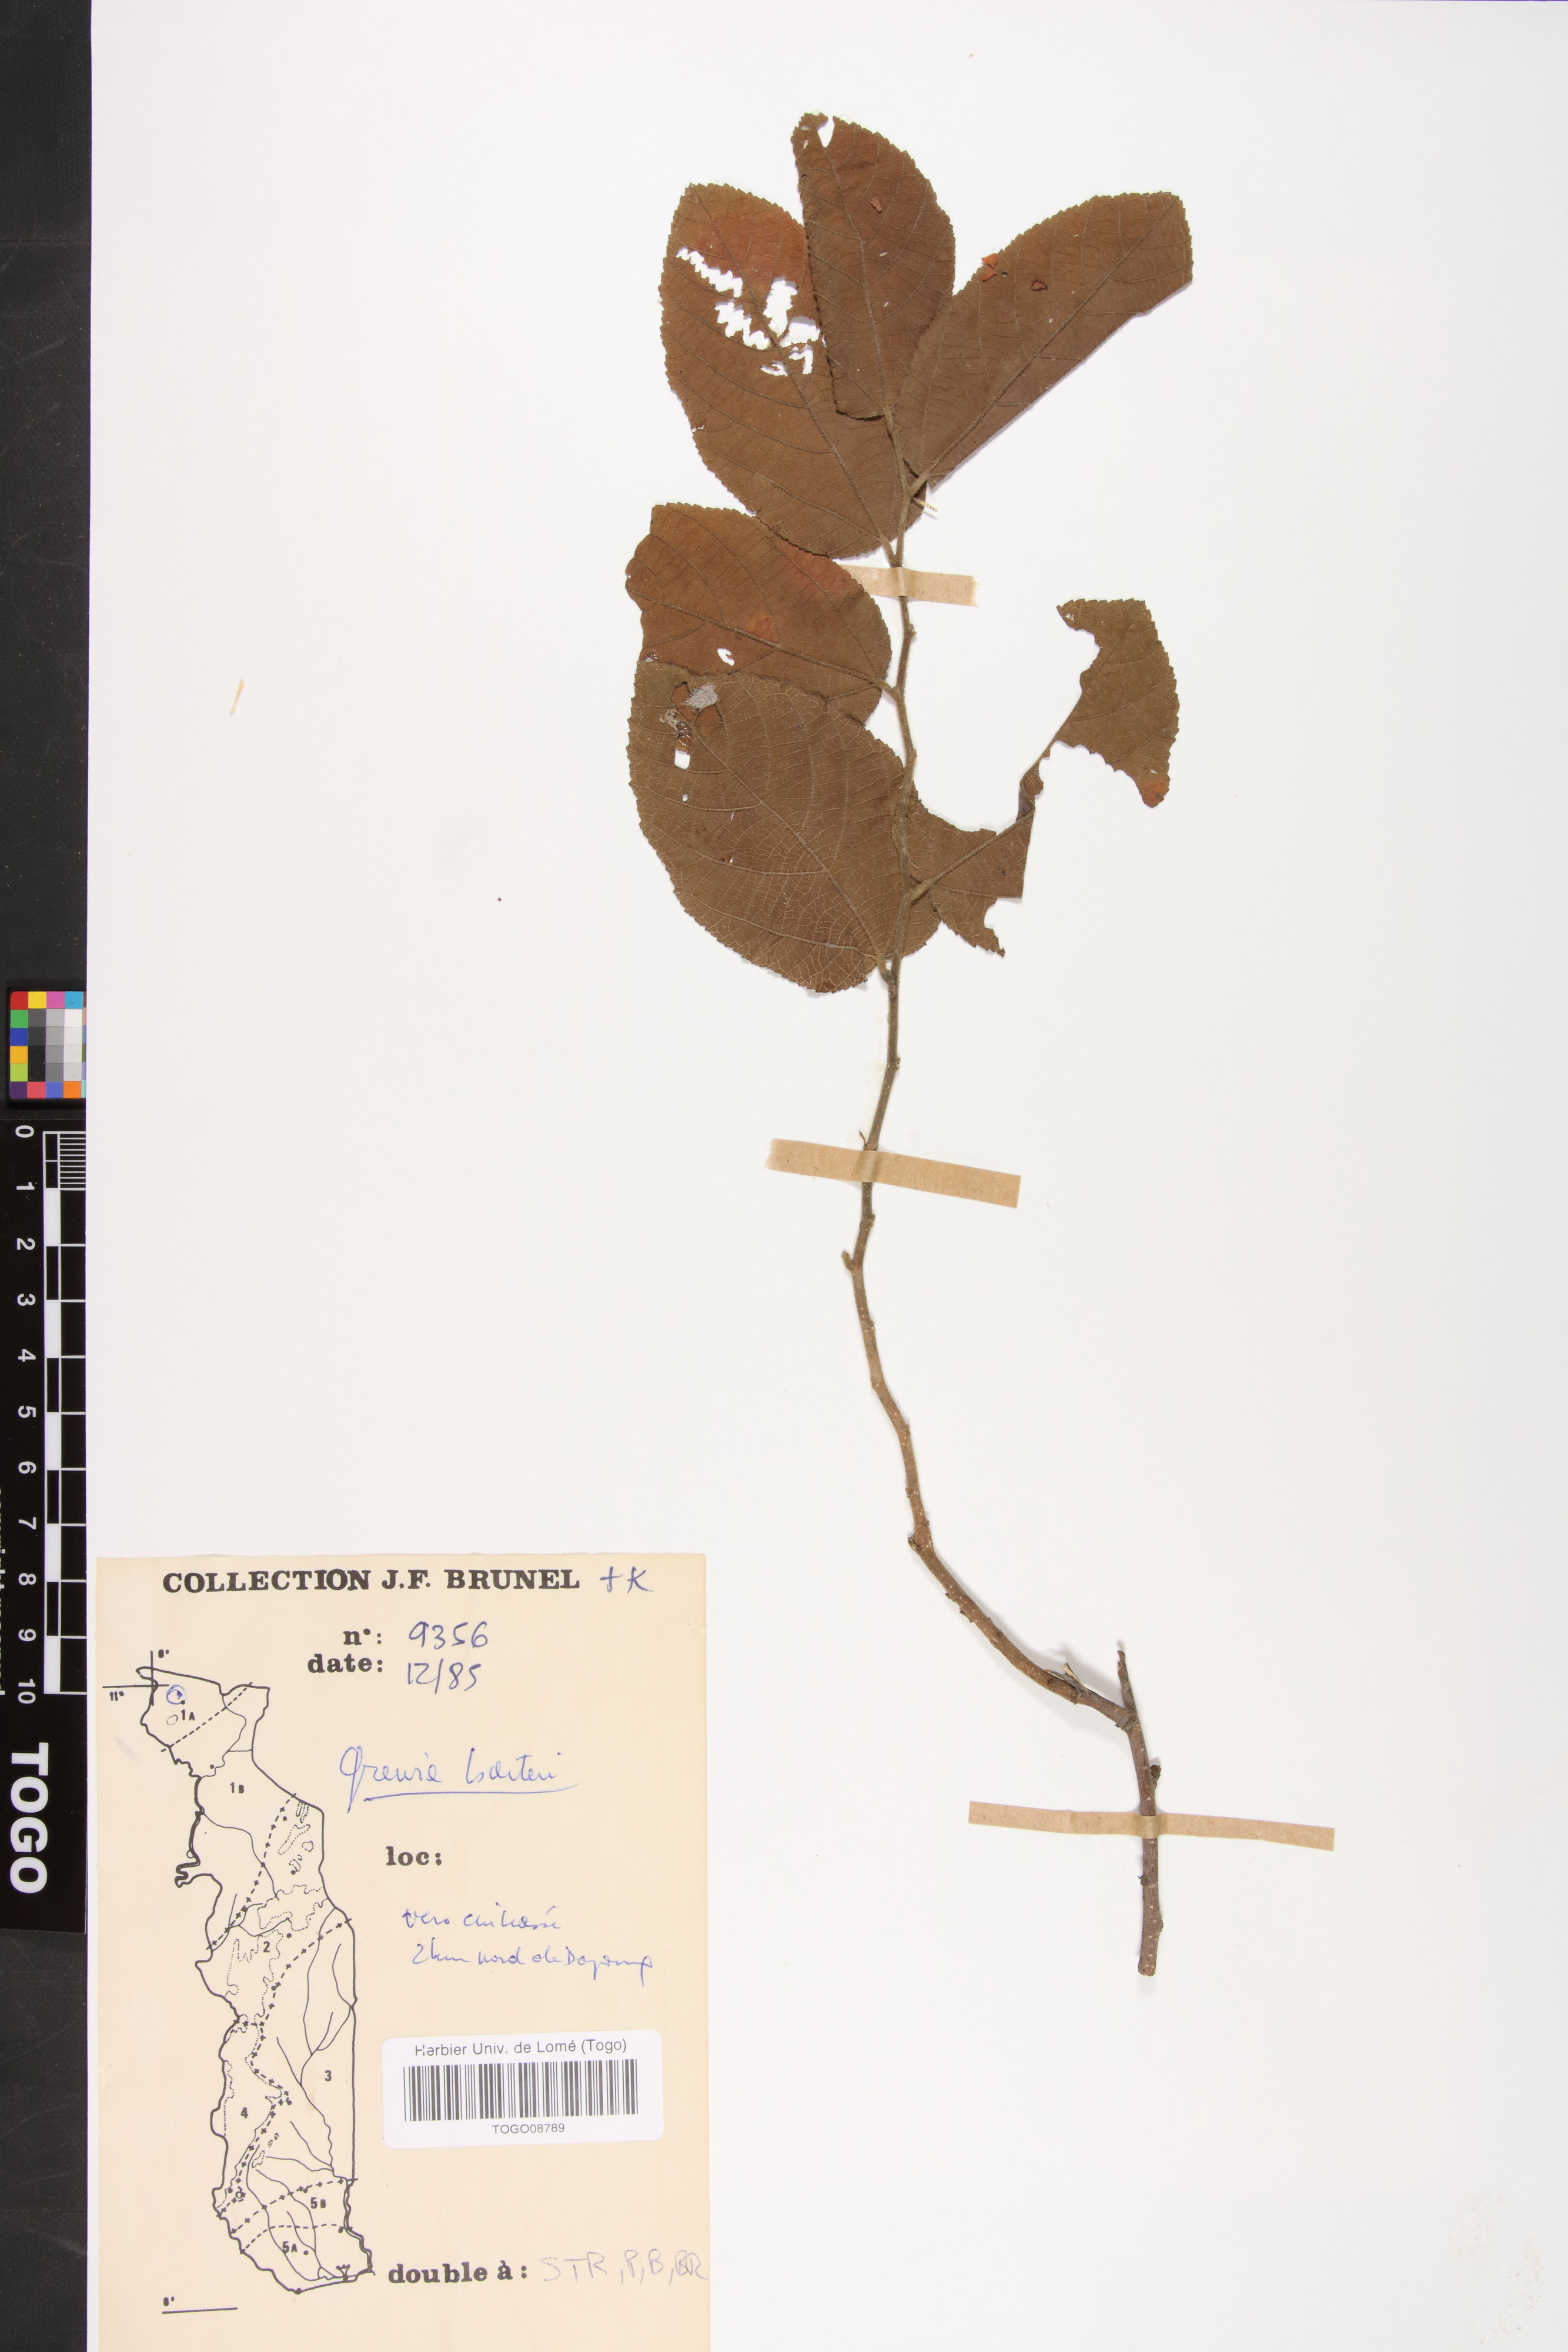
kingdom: Plantae
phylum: Tracheophyta
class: Magnoliopsida
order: Malvales
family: Malvaceae
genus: Grewia
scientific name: Grewia barteri
